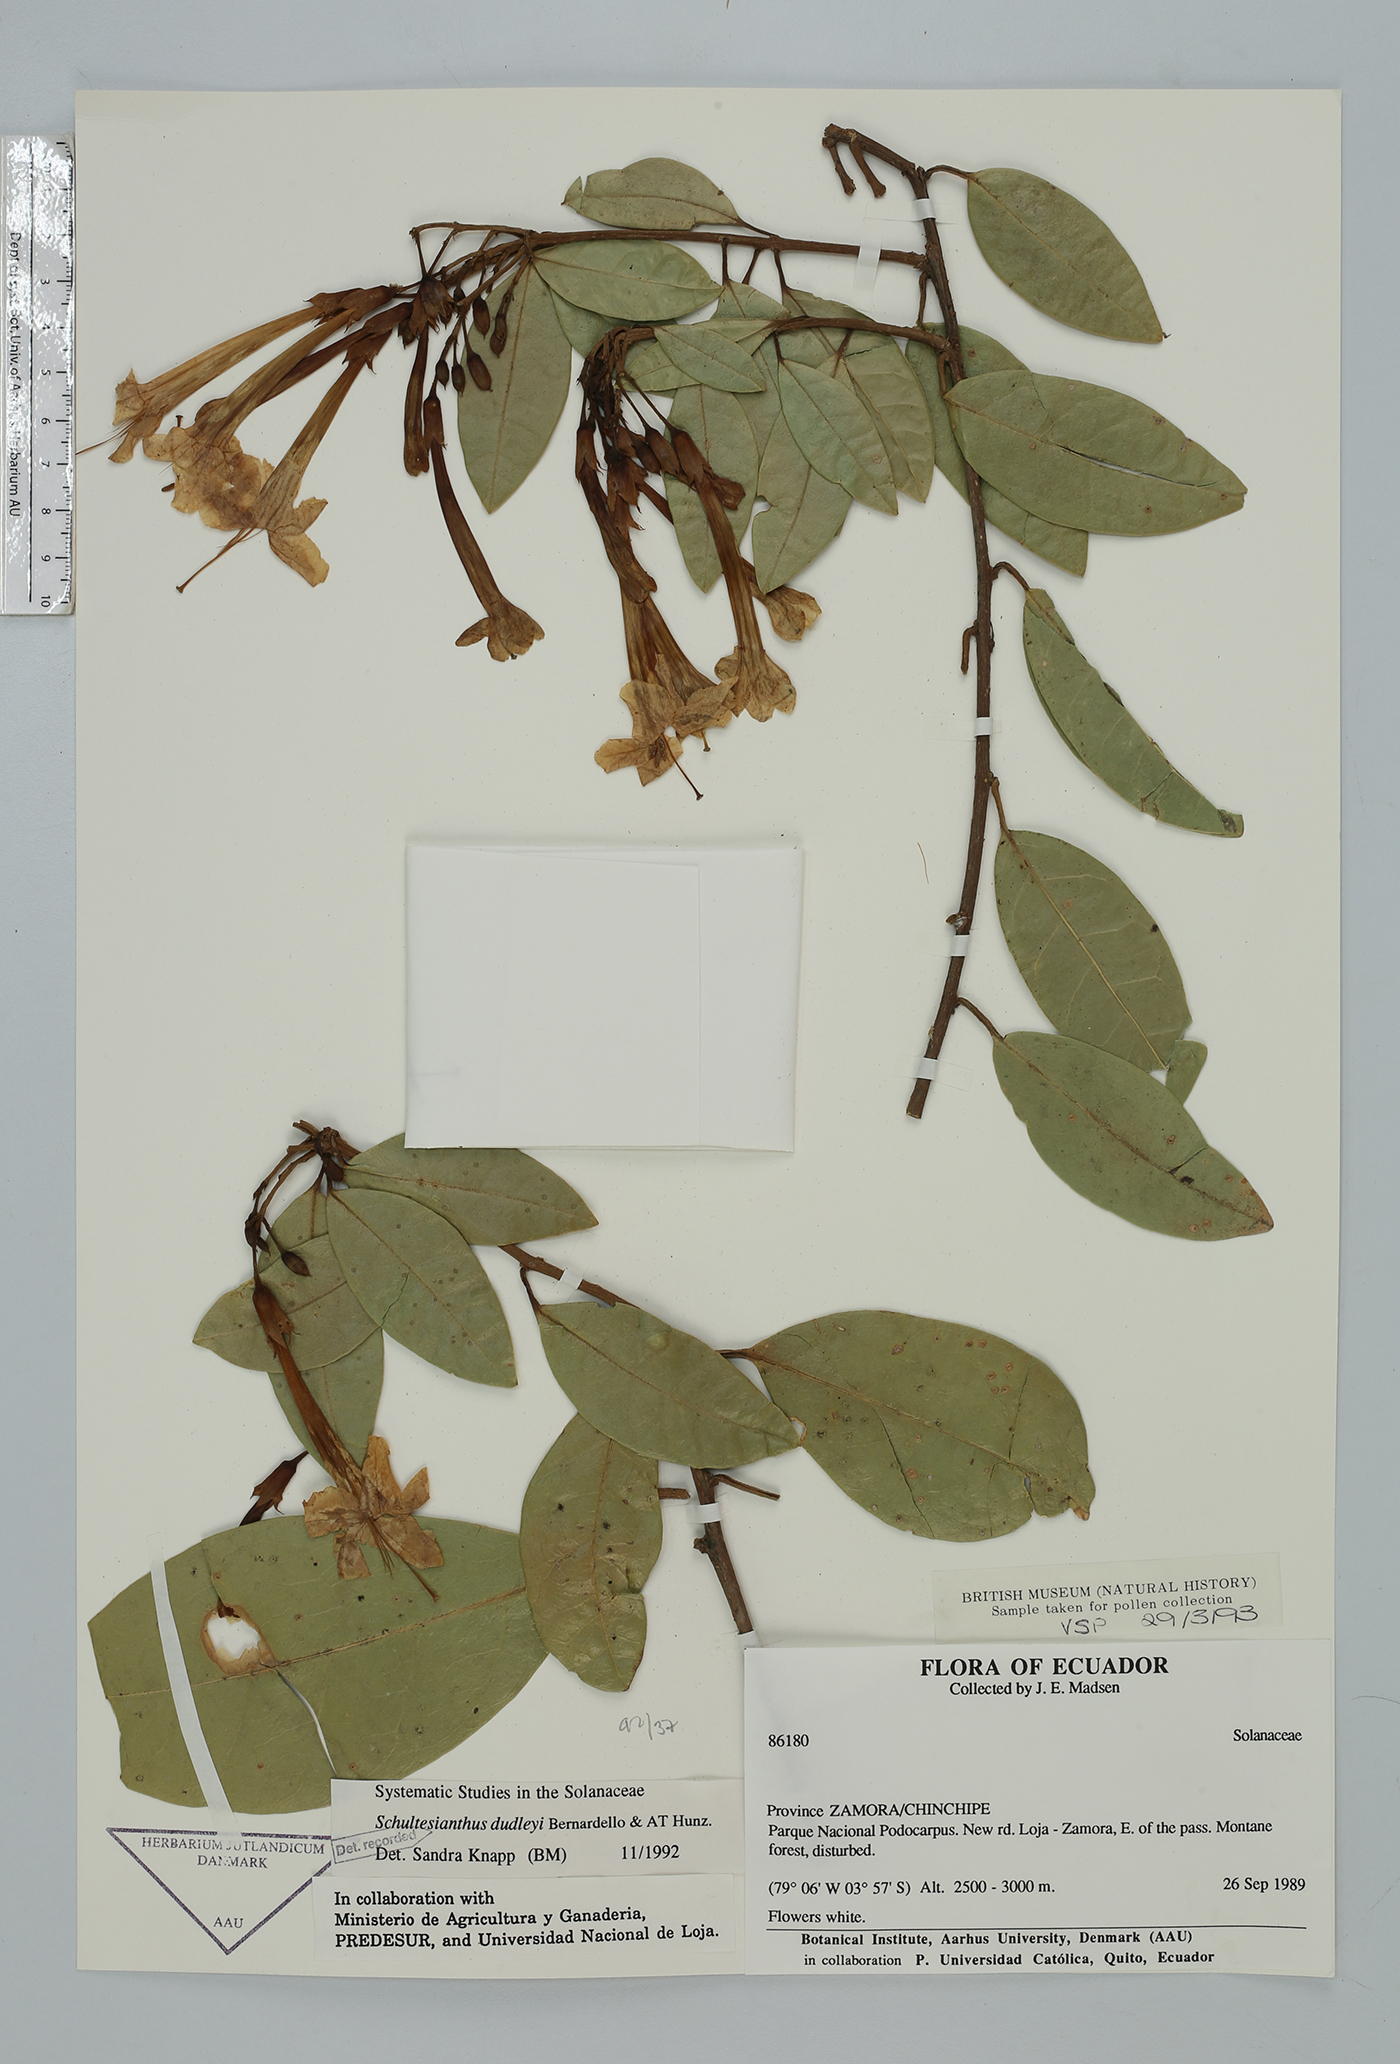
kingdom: Plantae
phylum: Tracheophyta
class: Magnoliopsida
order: Solanales
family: Solanaceae
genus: Schultesianthus
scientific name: Schultesianthus dudleyi
